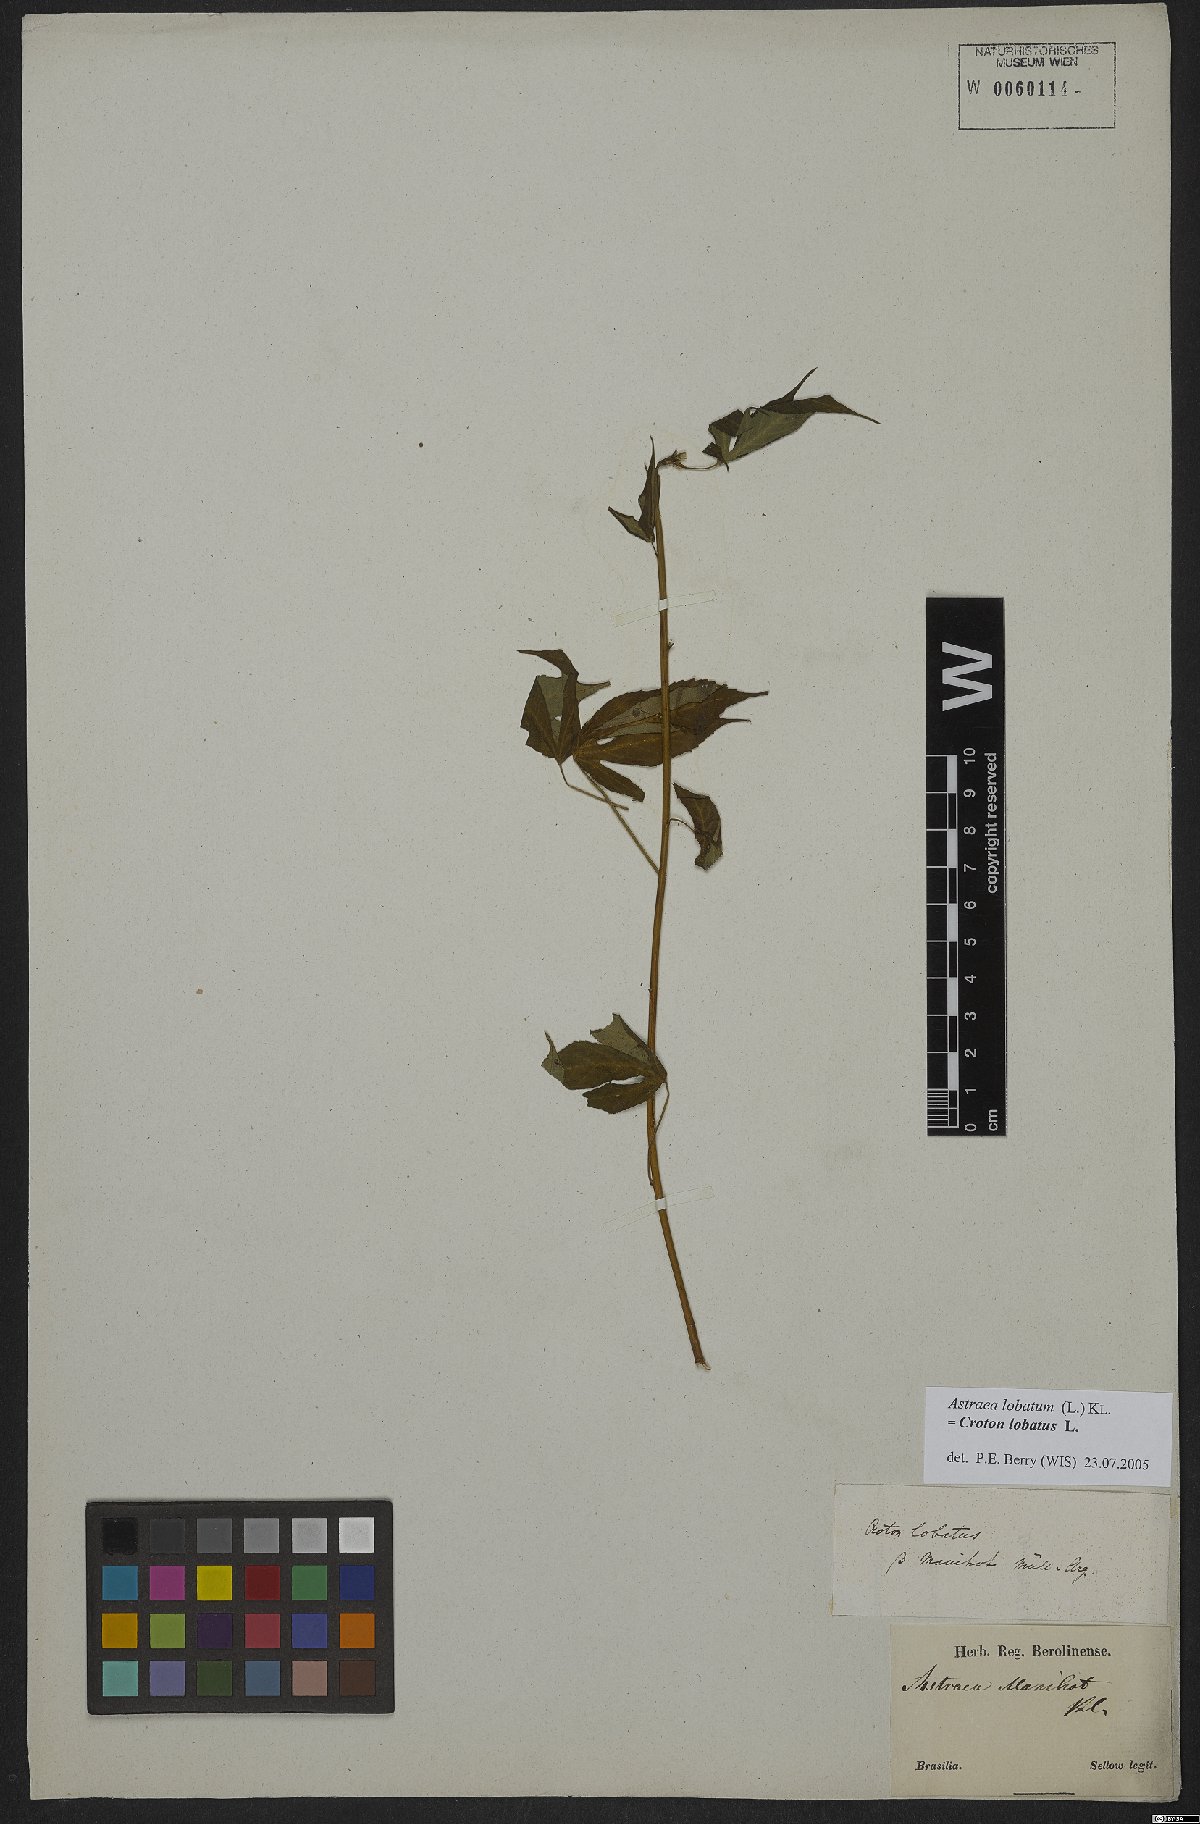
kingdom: Plantae
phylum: Tracheophyta
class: Magnoliopsida
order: Malpighiales
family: Euphorbiaceae
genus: Croton
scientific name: Croton lobatus
